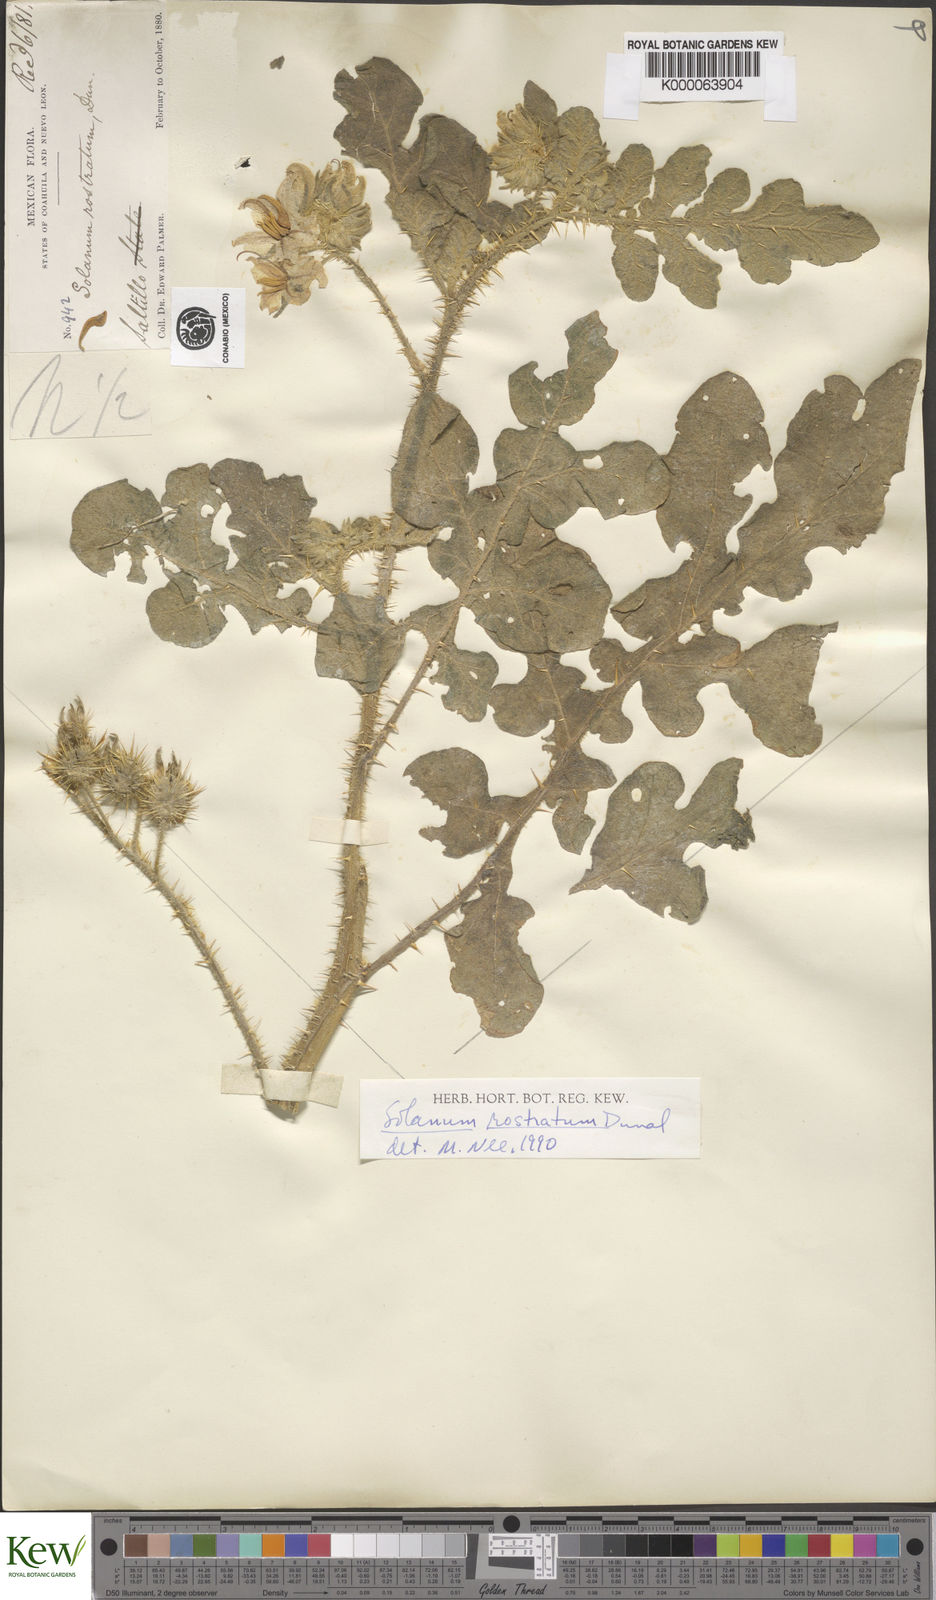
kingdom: Plantae
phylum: Tracheophyta
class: Magnoliopsida
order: Solanales
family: Solanaceae
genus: Solanum
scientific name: Solanum angustifolium
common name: Buffalobur nightshade
